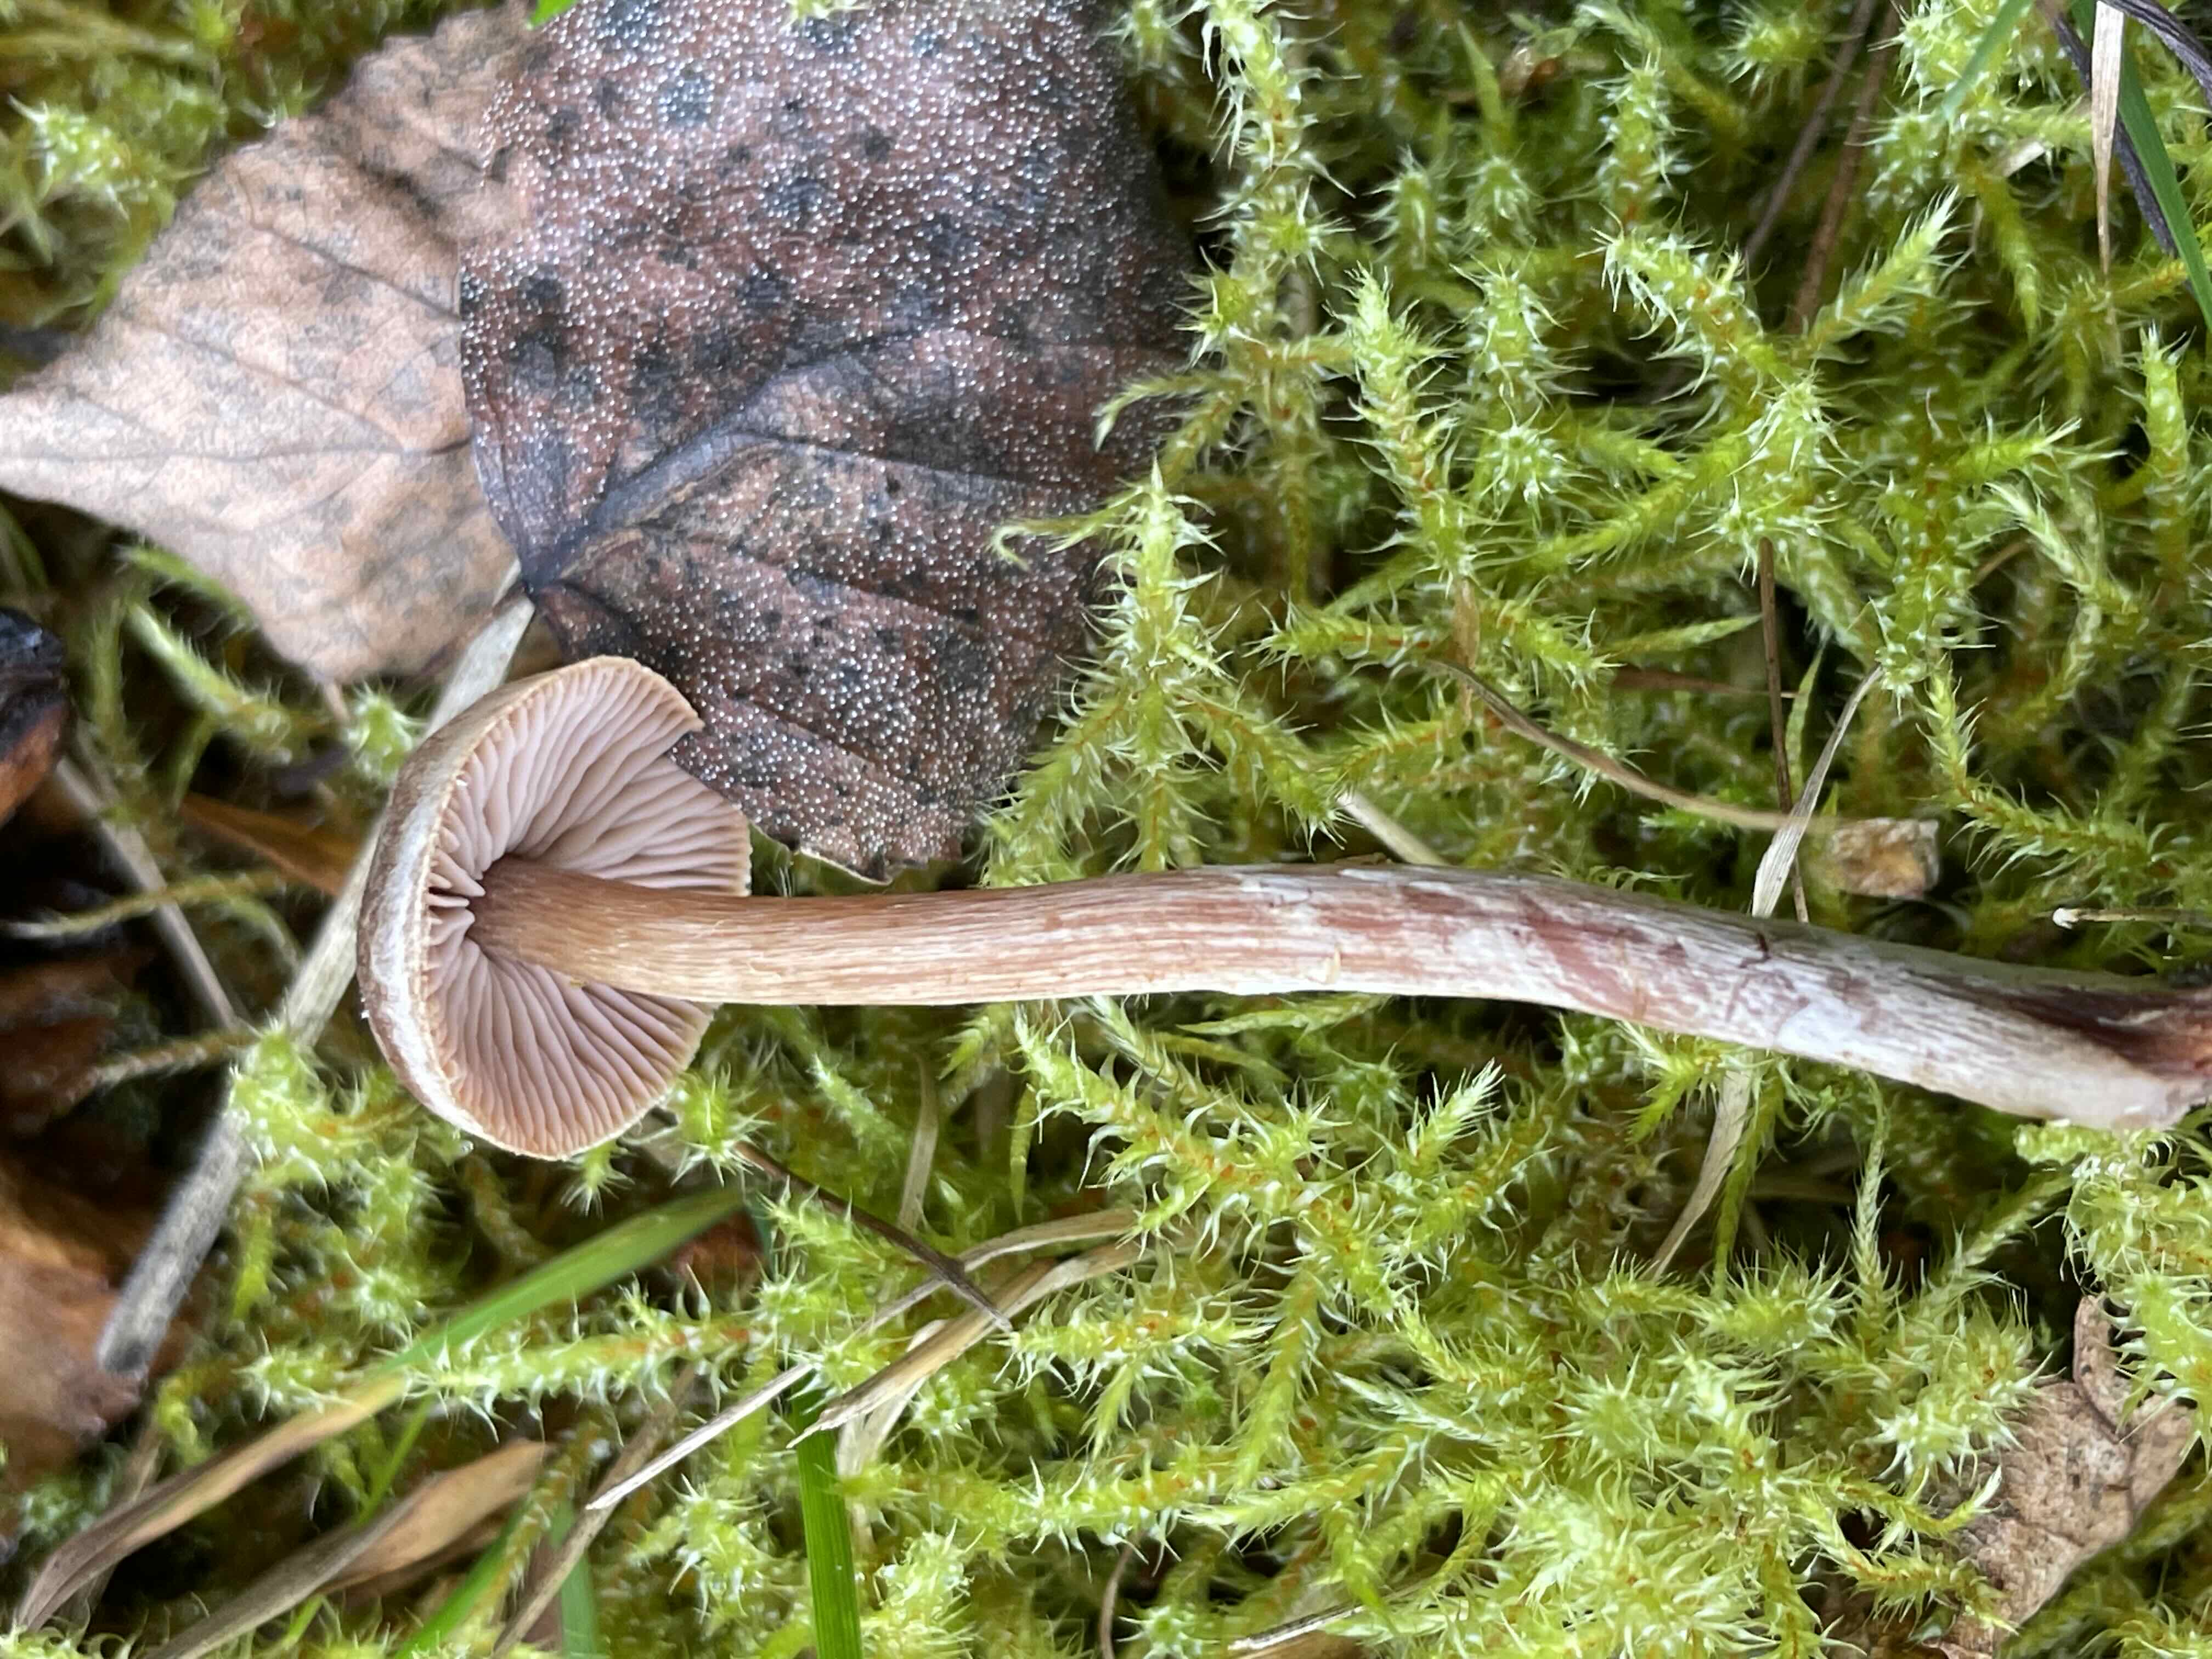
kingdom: Fungi
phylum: Basidiomycota
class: Agaricomycetes
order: Agaricales
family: Cortinariaceae
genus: Cortinarius
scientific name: Cortinarius
